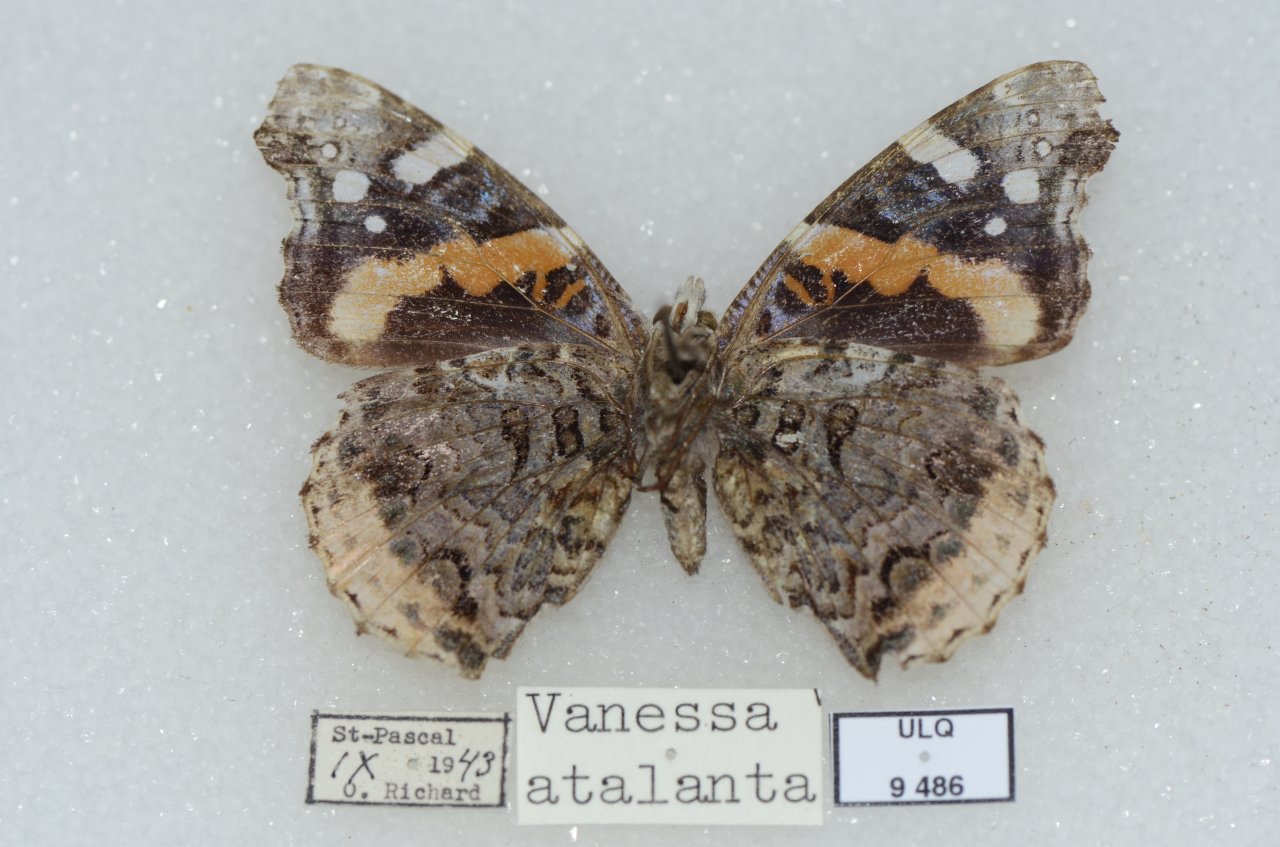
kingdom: Animalia
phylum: Arthropoda
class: Insecta
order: Lepidoptera
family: Nymphalidae
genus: Vanessa
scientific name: Vanessa atalanta
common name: Red Admiral
